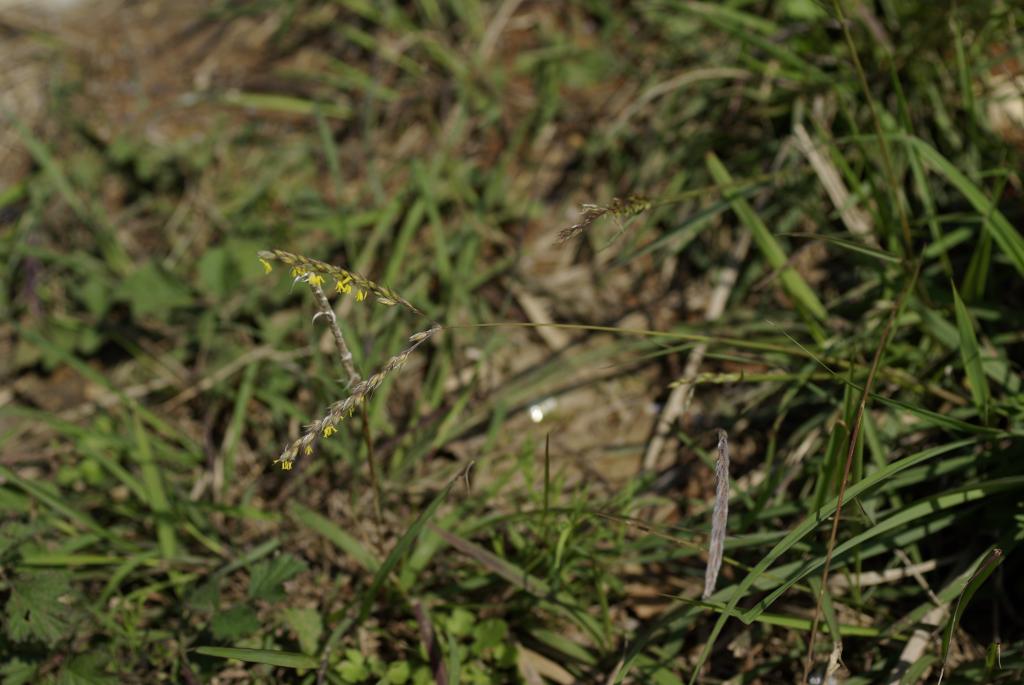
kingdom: Plantae
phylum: Tracheophyta
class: Liliopsida
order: Poales
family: Poaceae
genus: Alloteropsis
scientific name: Alloteropsis semialata
